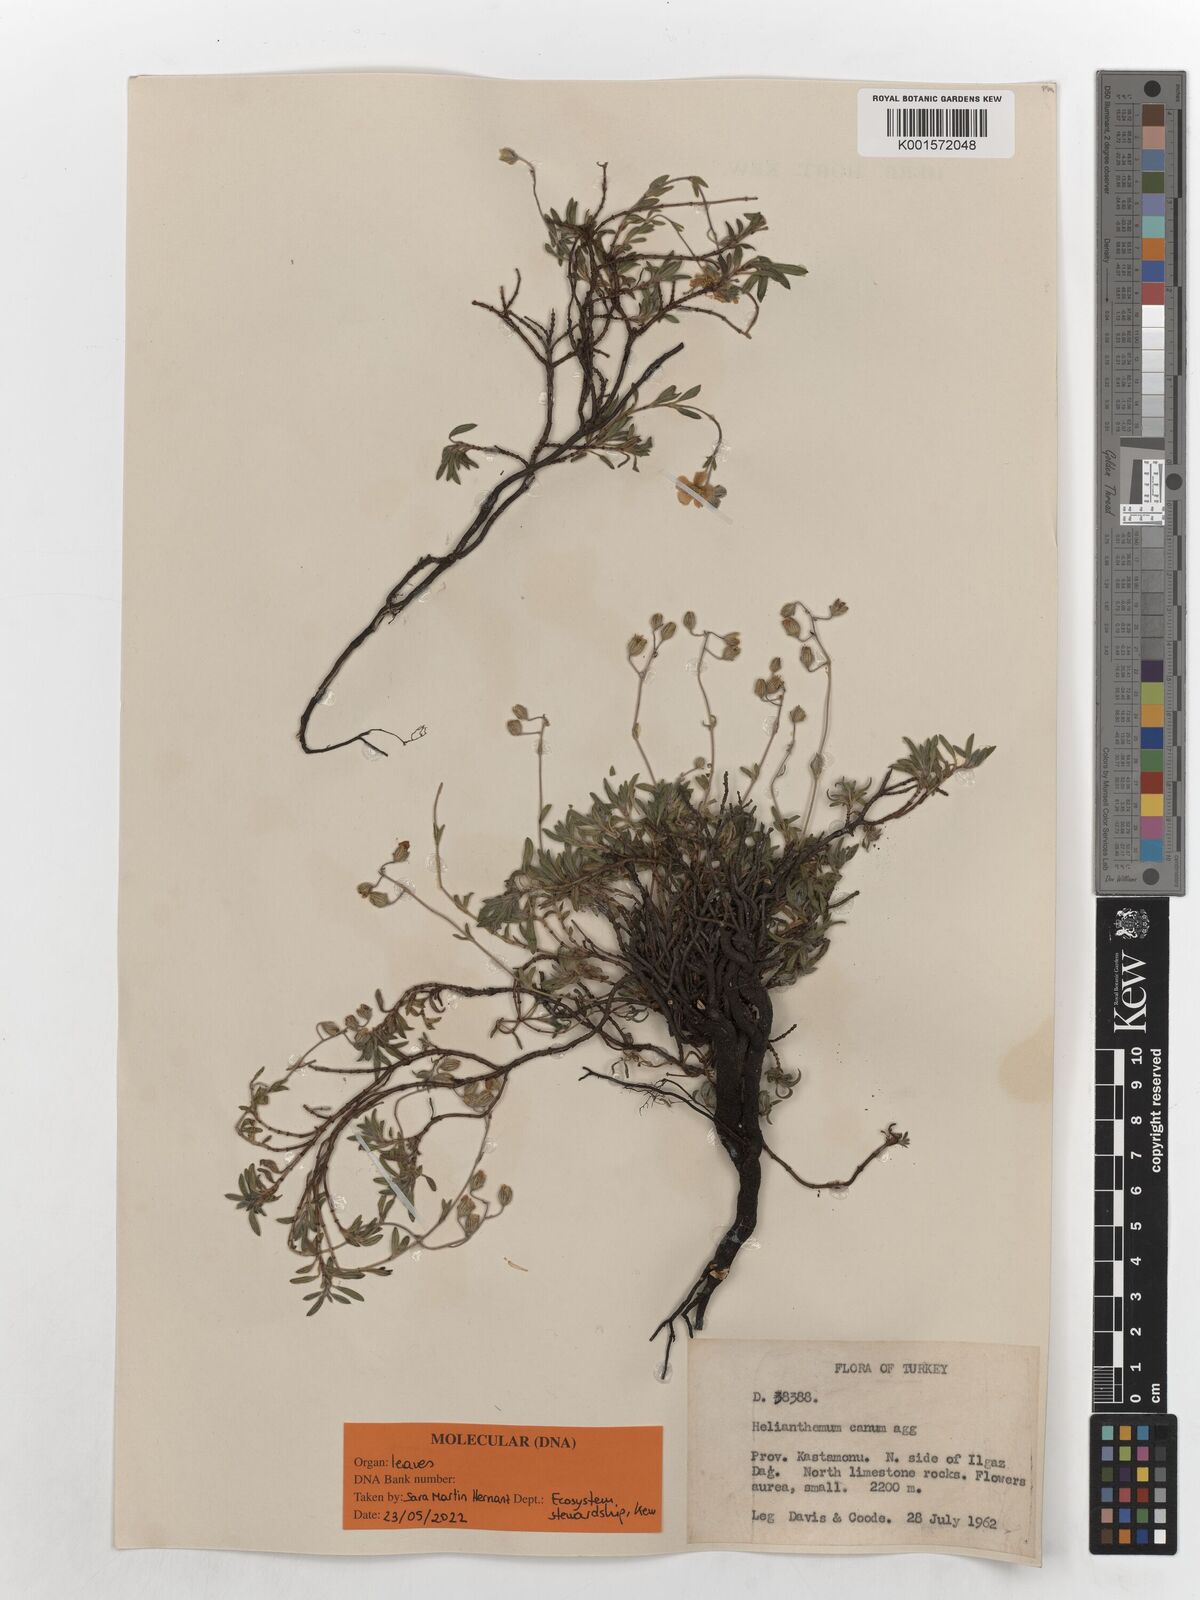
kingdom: Plantae
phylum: Tracheophyta
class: Magnoliopsida
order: Malvales
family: Cistaceae
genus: Helianthemum
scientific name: Helianthemum canum
